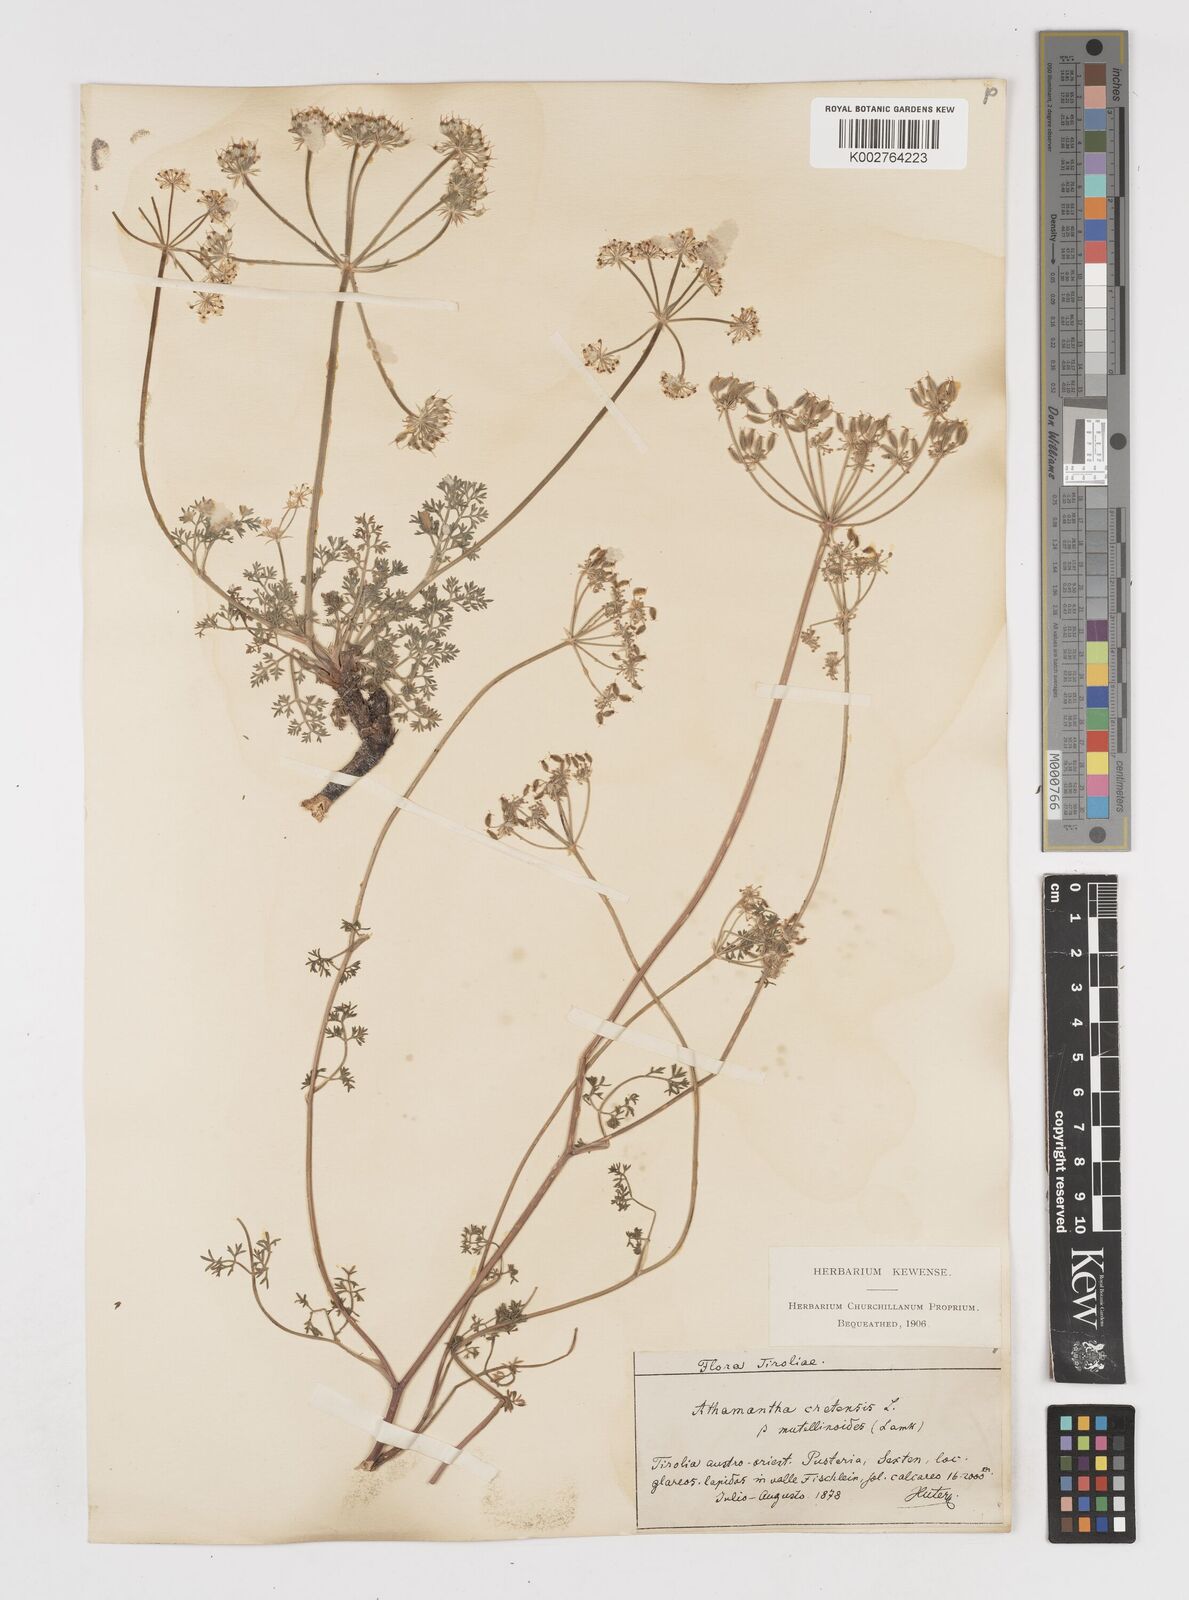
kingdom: Plantae
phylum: Tracheophyta
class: Magnoliopsida
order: Apiales
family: Apiaceae
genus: Athamanta
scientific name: Athamanta cretensis
